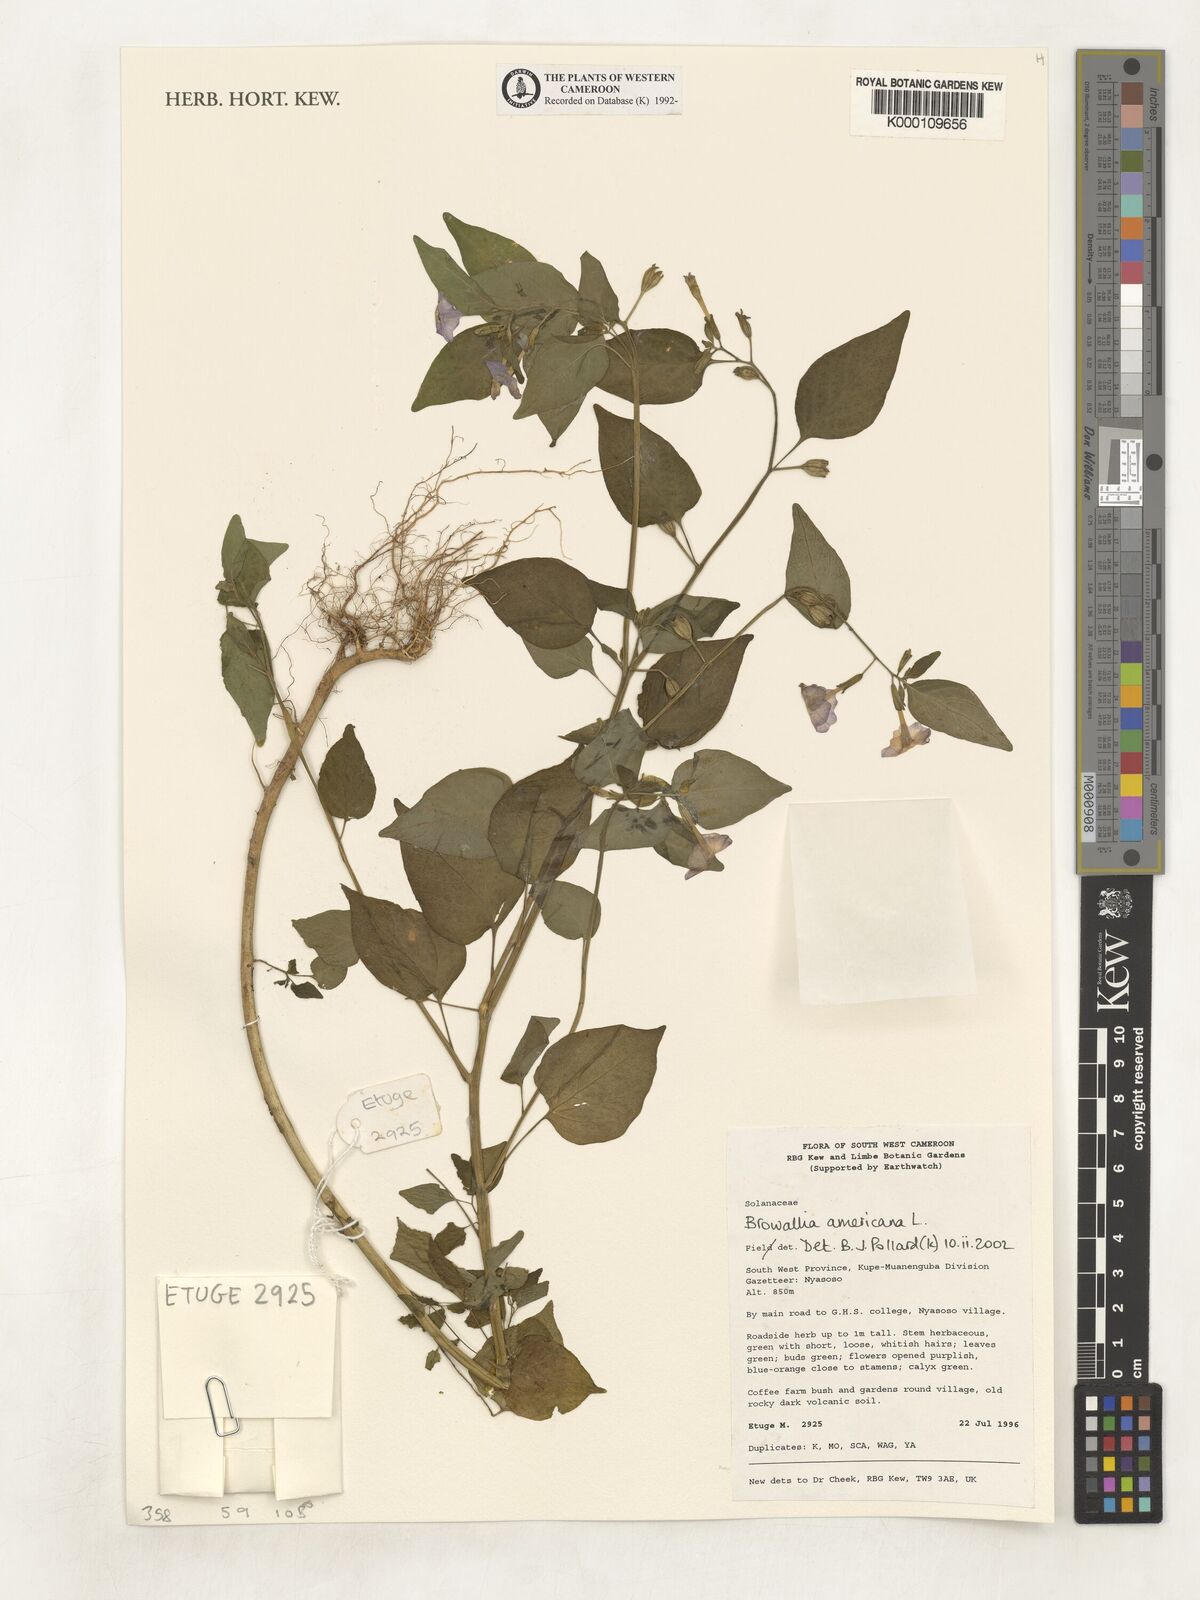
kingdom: Plantae
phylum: Tracheophyta
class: Magnoliopsida
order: Solanales
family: Solanaceae
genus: Browallia
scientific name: Browallia americana
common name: Jamaican forget-me-not
